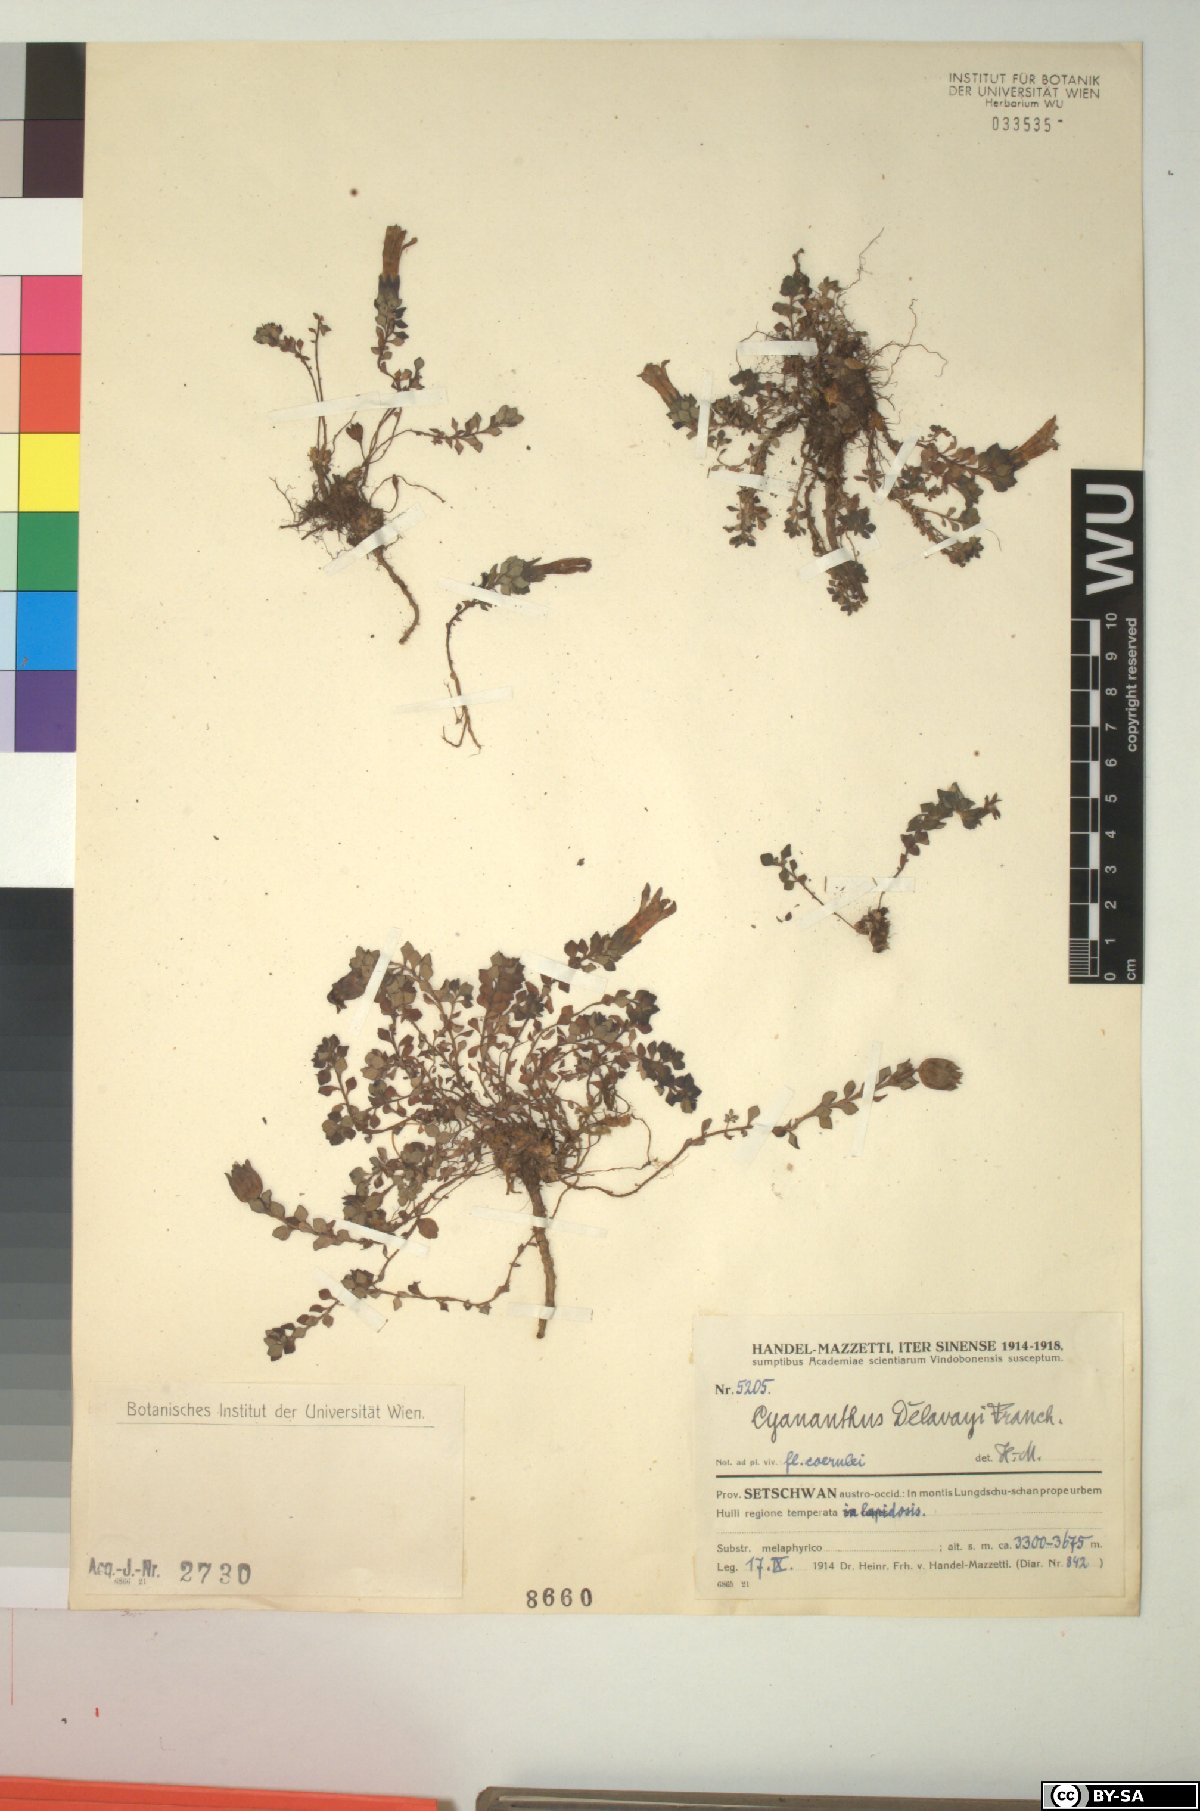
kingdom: Plantae
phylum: Tracheophyta
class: Magnoliopsida
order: Asterales
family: Campanulaceae
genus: Cyananthus
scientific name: Cyananthus delavayi
